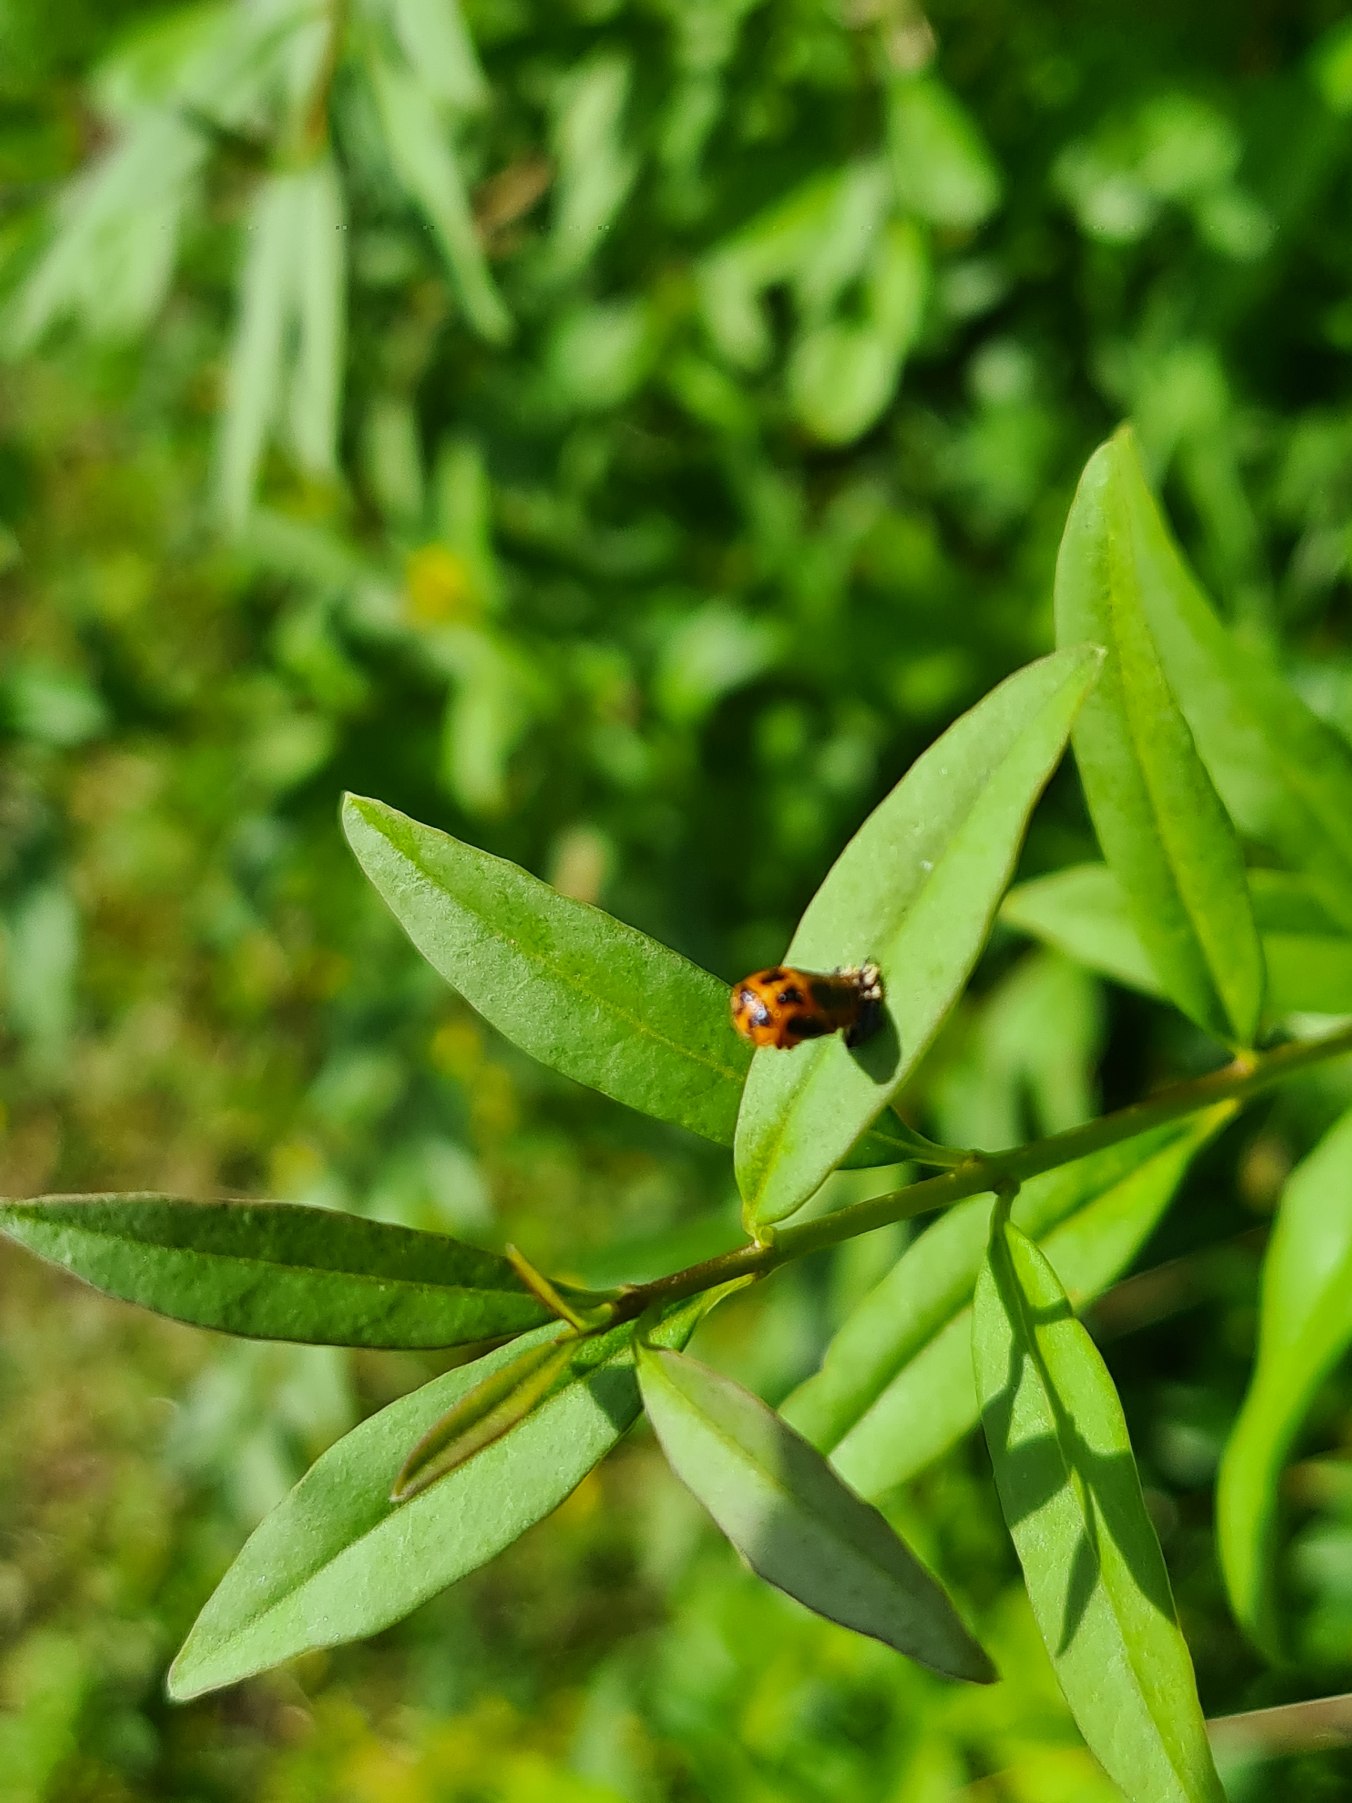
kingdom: Animalia
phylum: Arthropoda
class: Insecta
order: Coleoptera
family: Coccinellidae
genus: Harmonia
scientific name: Harmonia axyridis
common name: Harlekinmariehøne
